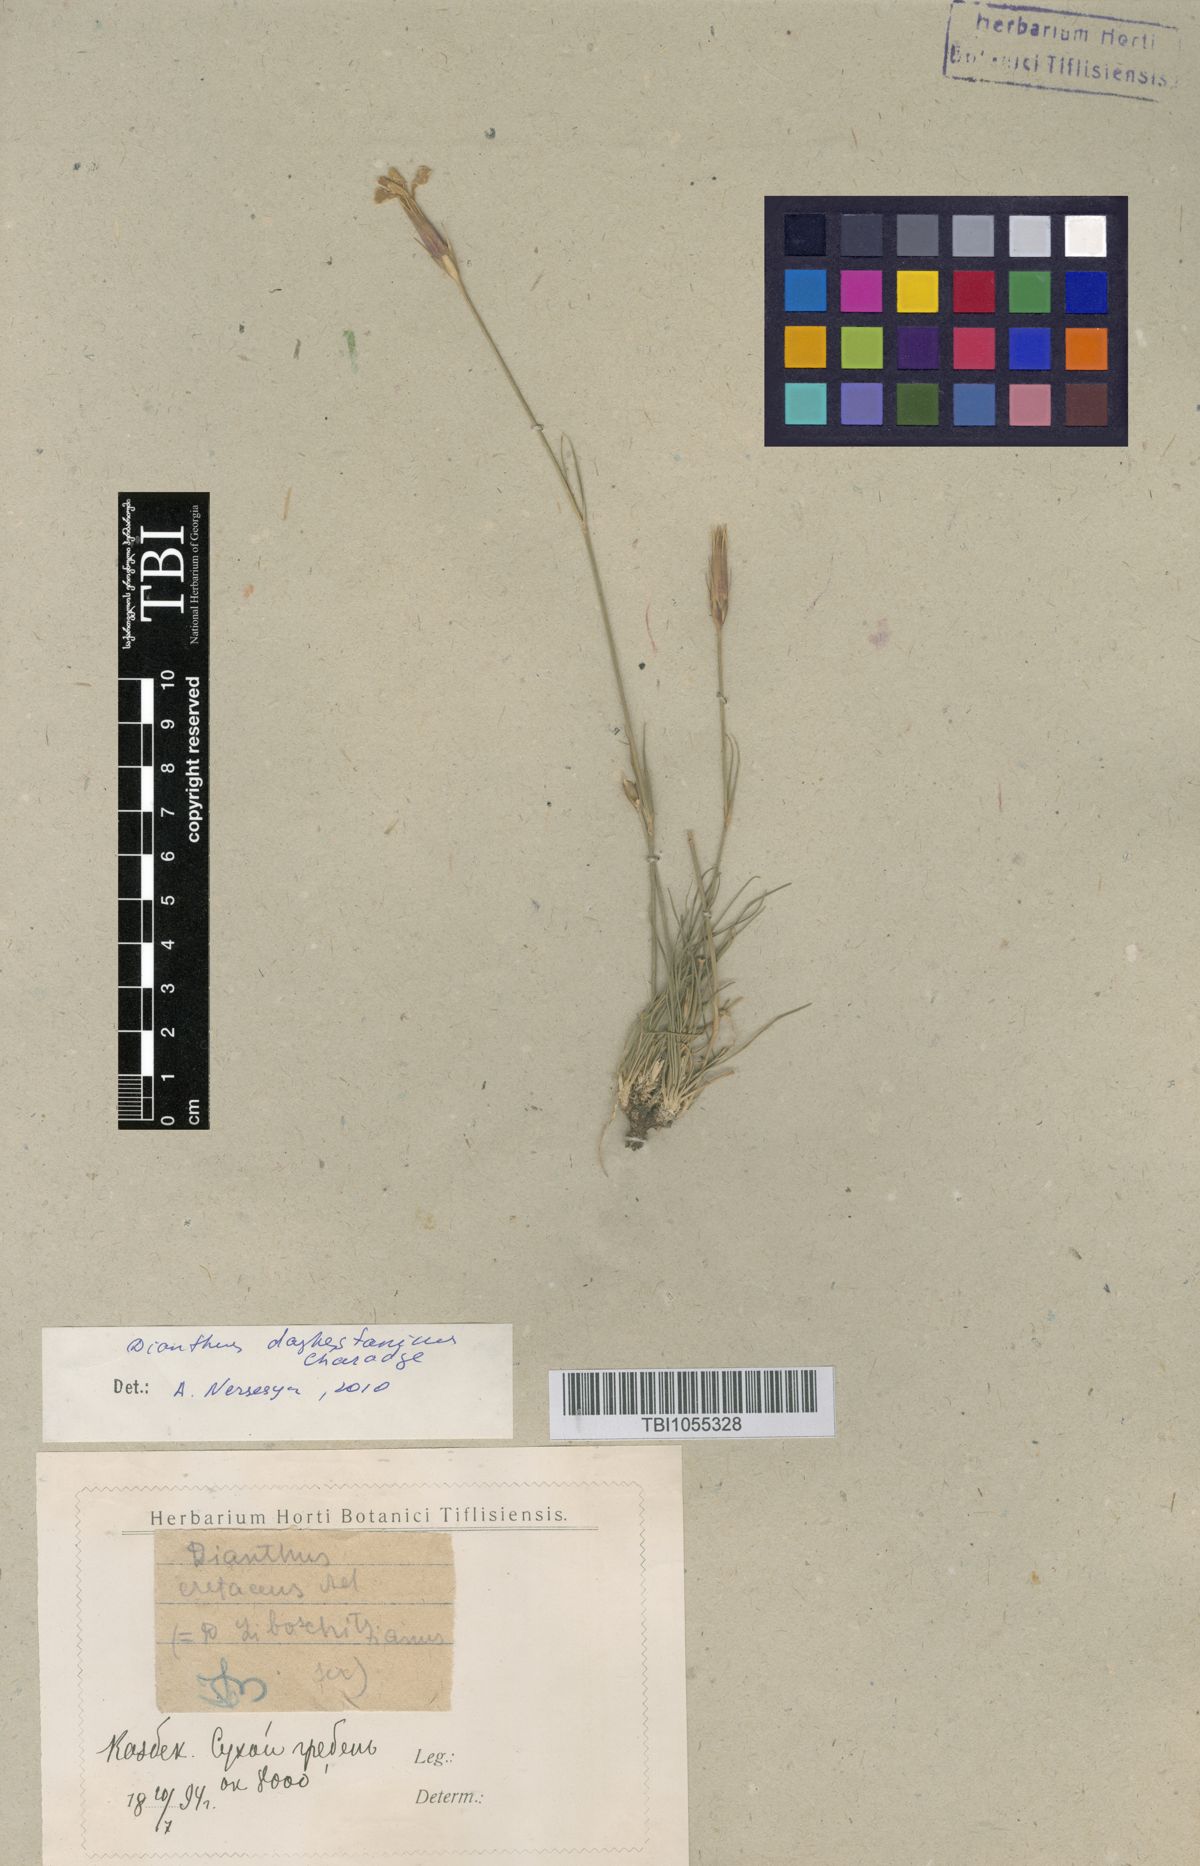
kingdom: Plantae
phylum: Tracheophyta
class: Magnoliopsida
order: Caryophyllales
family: Caryophyllaceae
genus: Dianthus
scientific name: Dianthus cretaceus
